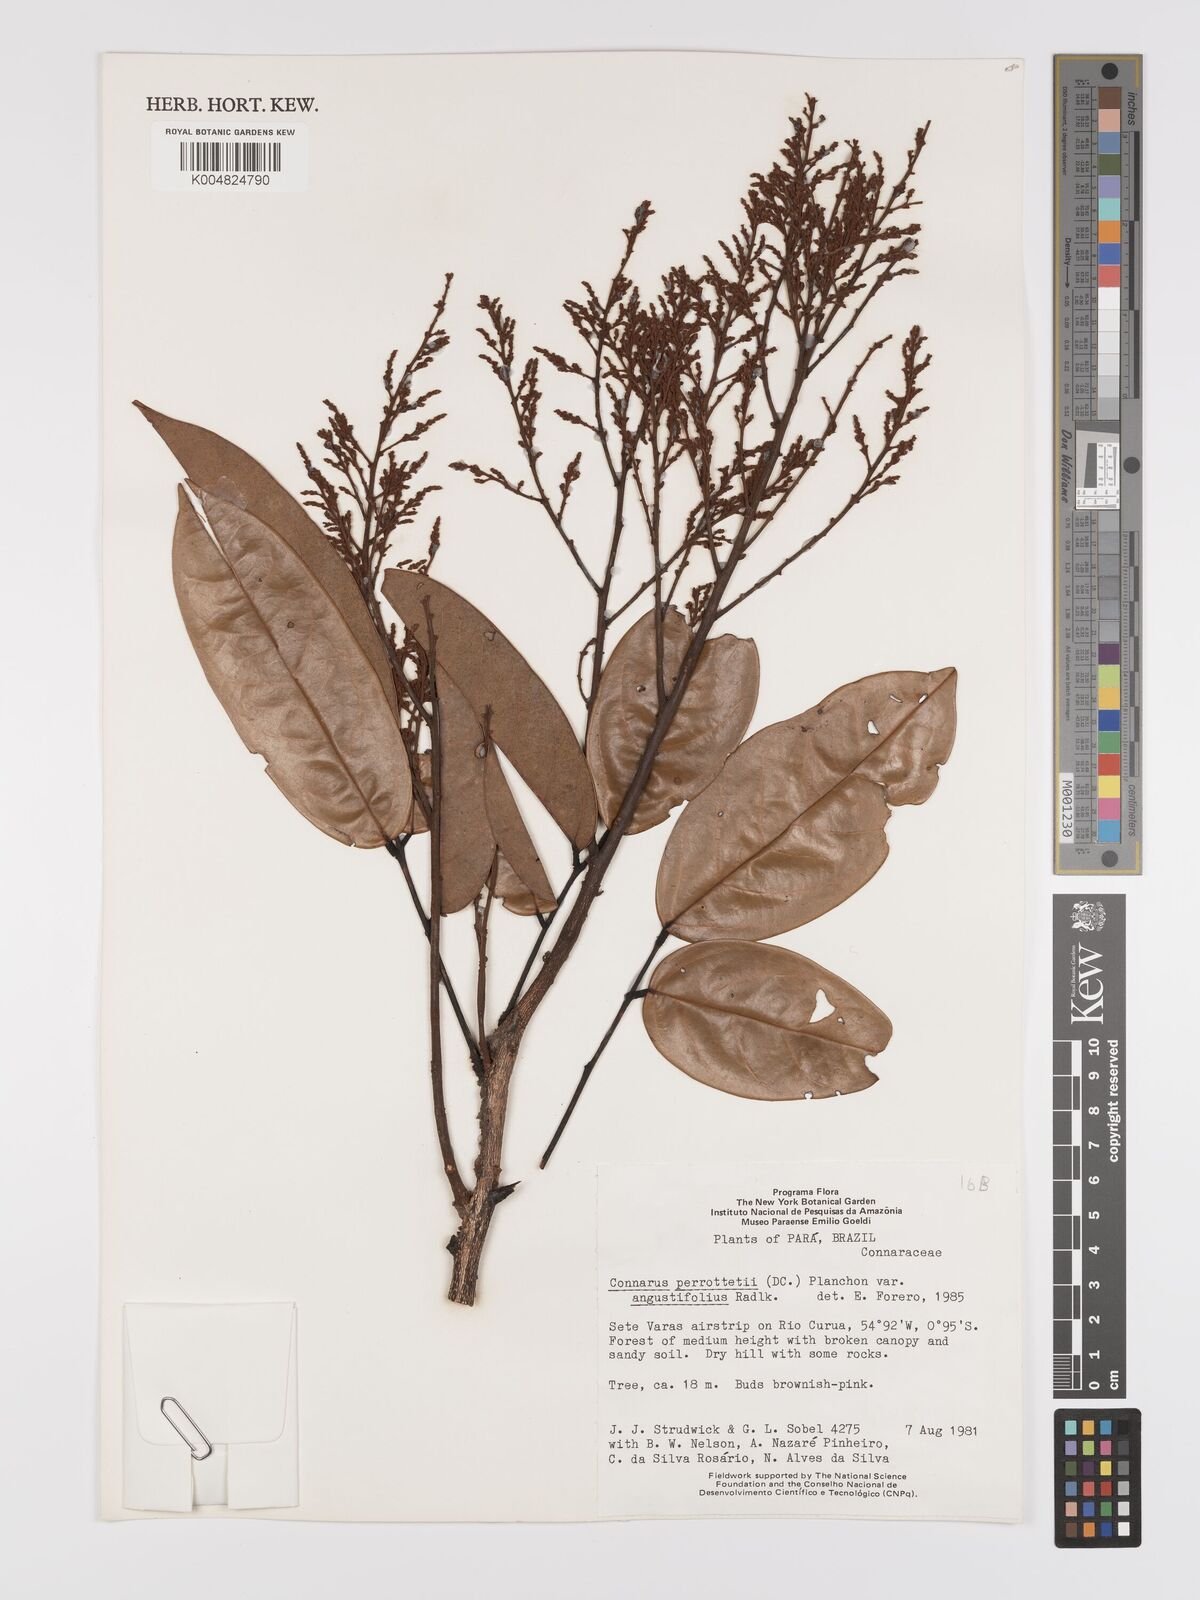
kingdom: Plantae
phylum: Tracheophyta
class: Magnoliopsida
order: Oxalidales
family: Connaraceae
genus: Connarus
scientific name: Connarus perrottetii
